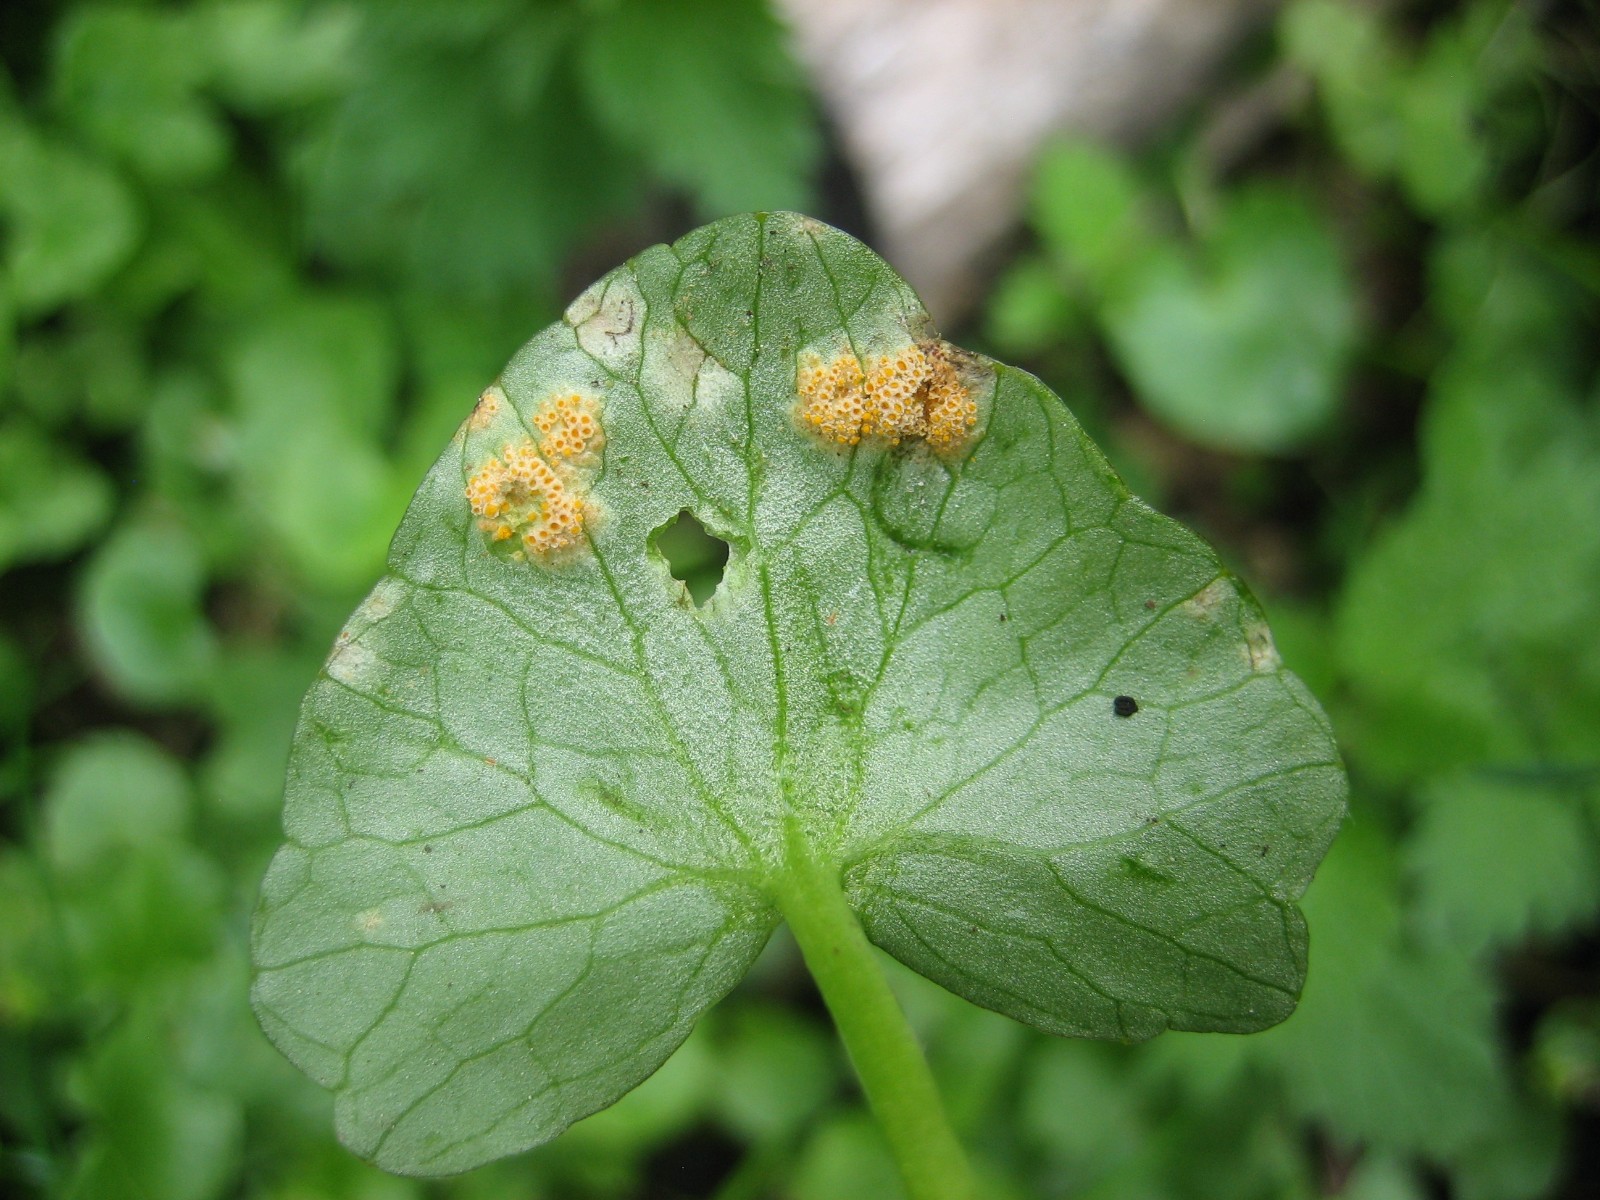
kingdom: Fungi
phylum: Basidiomycota
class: Pucciniomycetes
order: Pucciniales
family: Pucciniaceae
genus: Uromyces
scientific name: Uromyces dactylidis
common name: ranunkel-encellerust
